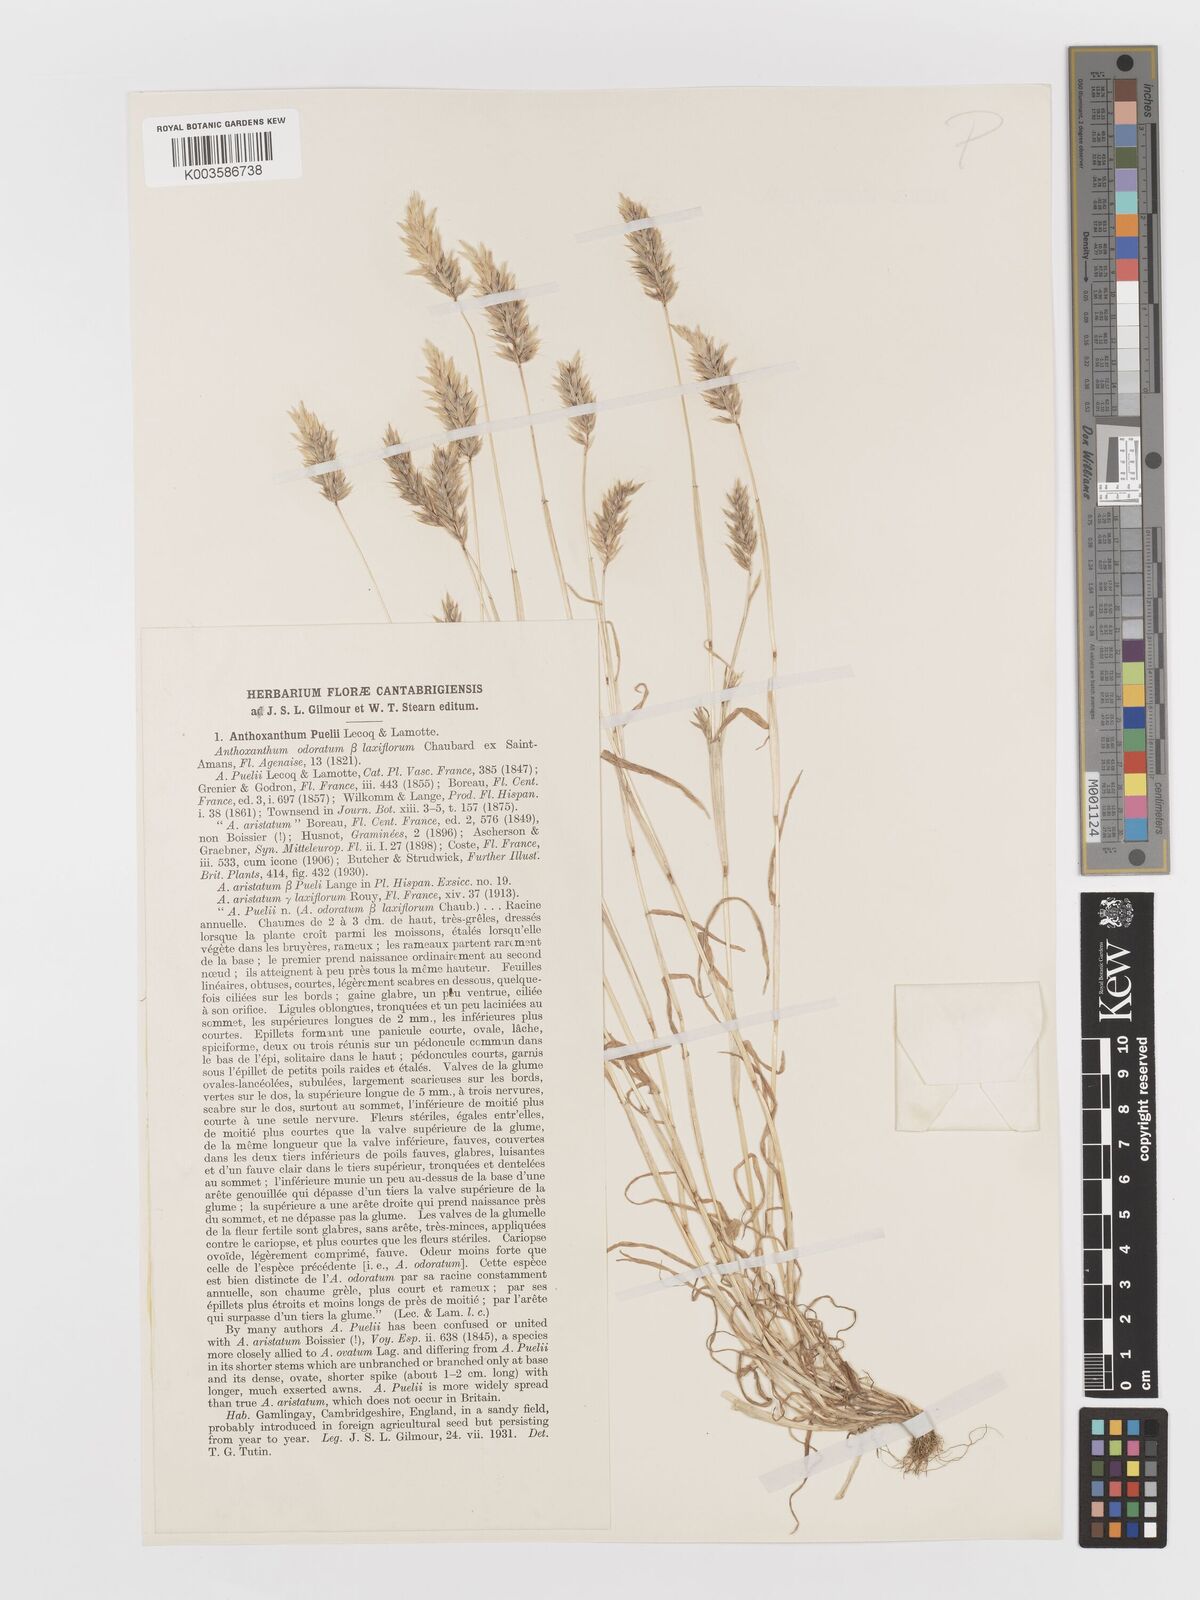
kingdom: Plantae
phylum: Tracheophyta
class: Liliopsida
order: Poales
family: Poaceae
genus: Anthoxanthum
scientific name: Anthoxanthum aristatum
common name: Annual vernal-grass
